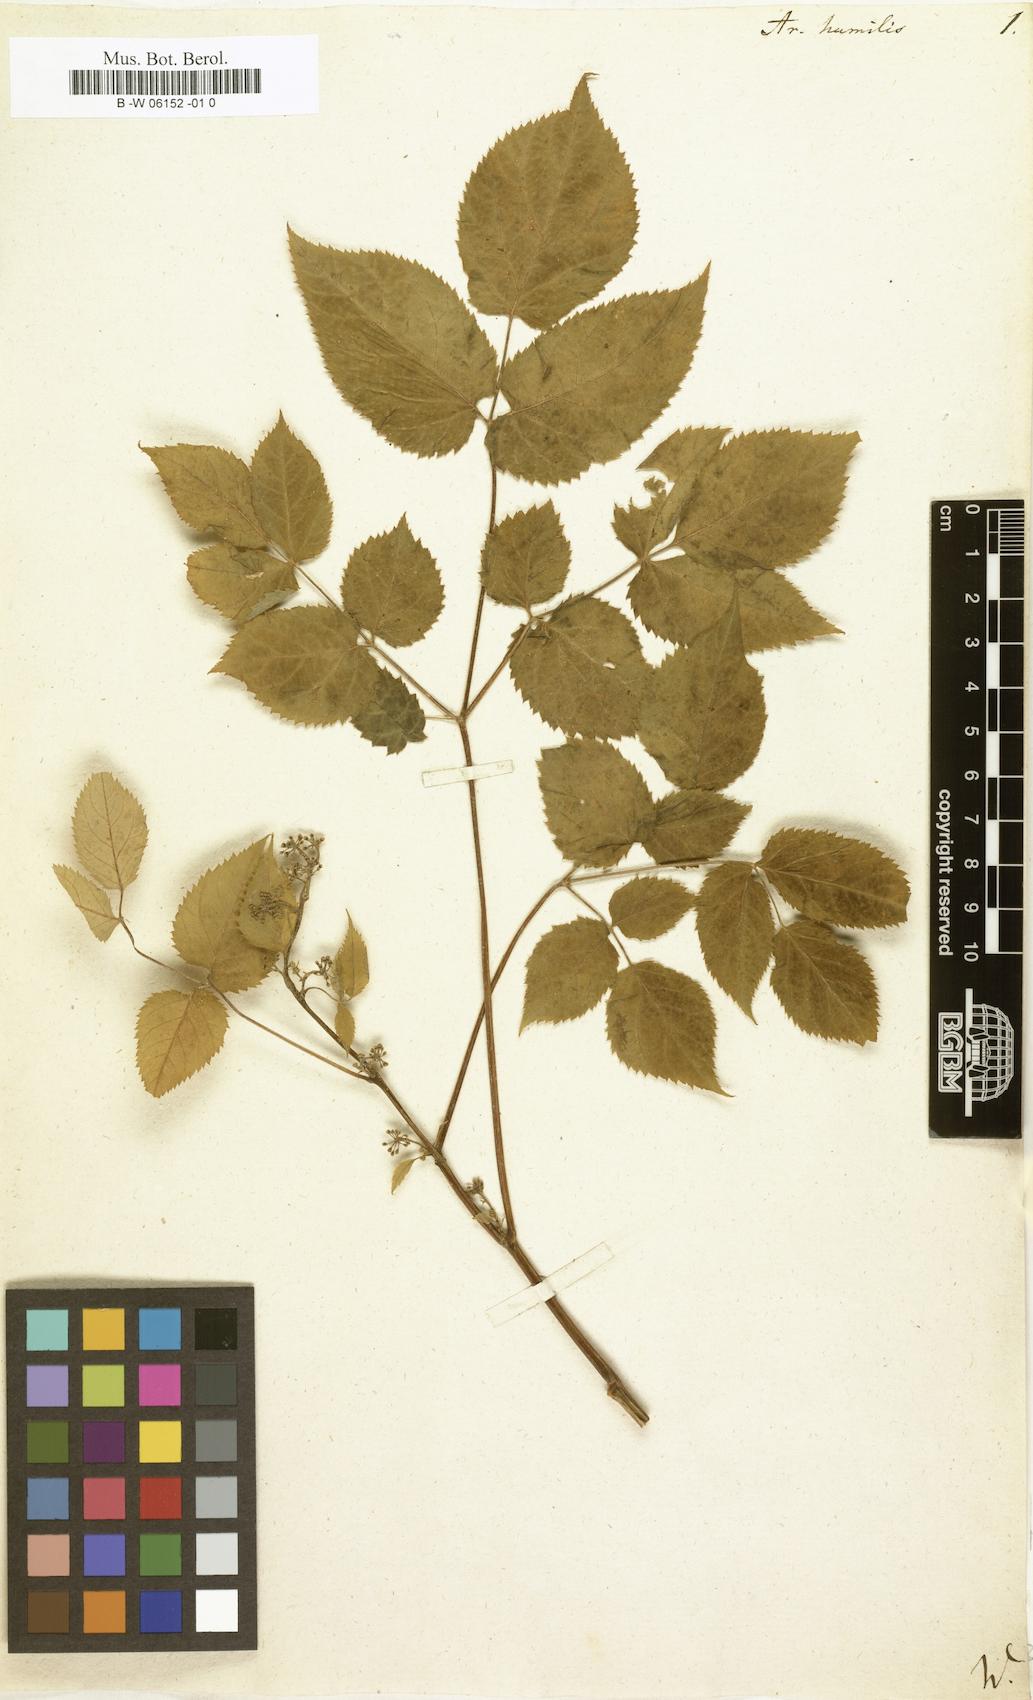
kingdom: Plantae
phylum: Tracheophyta
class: Magnoliopsida
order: Apiales
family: Araliaceae
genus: Aralia
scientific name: Aralia humilis
